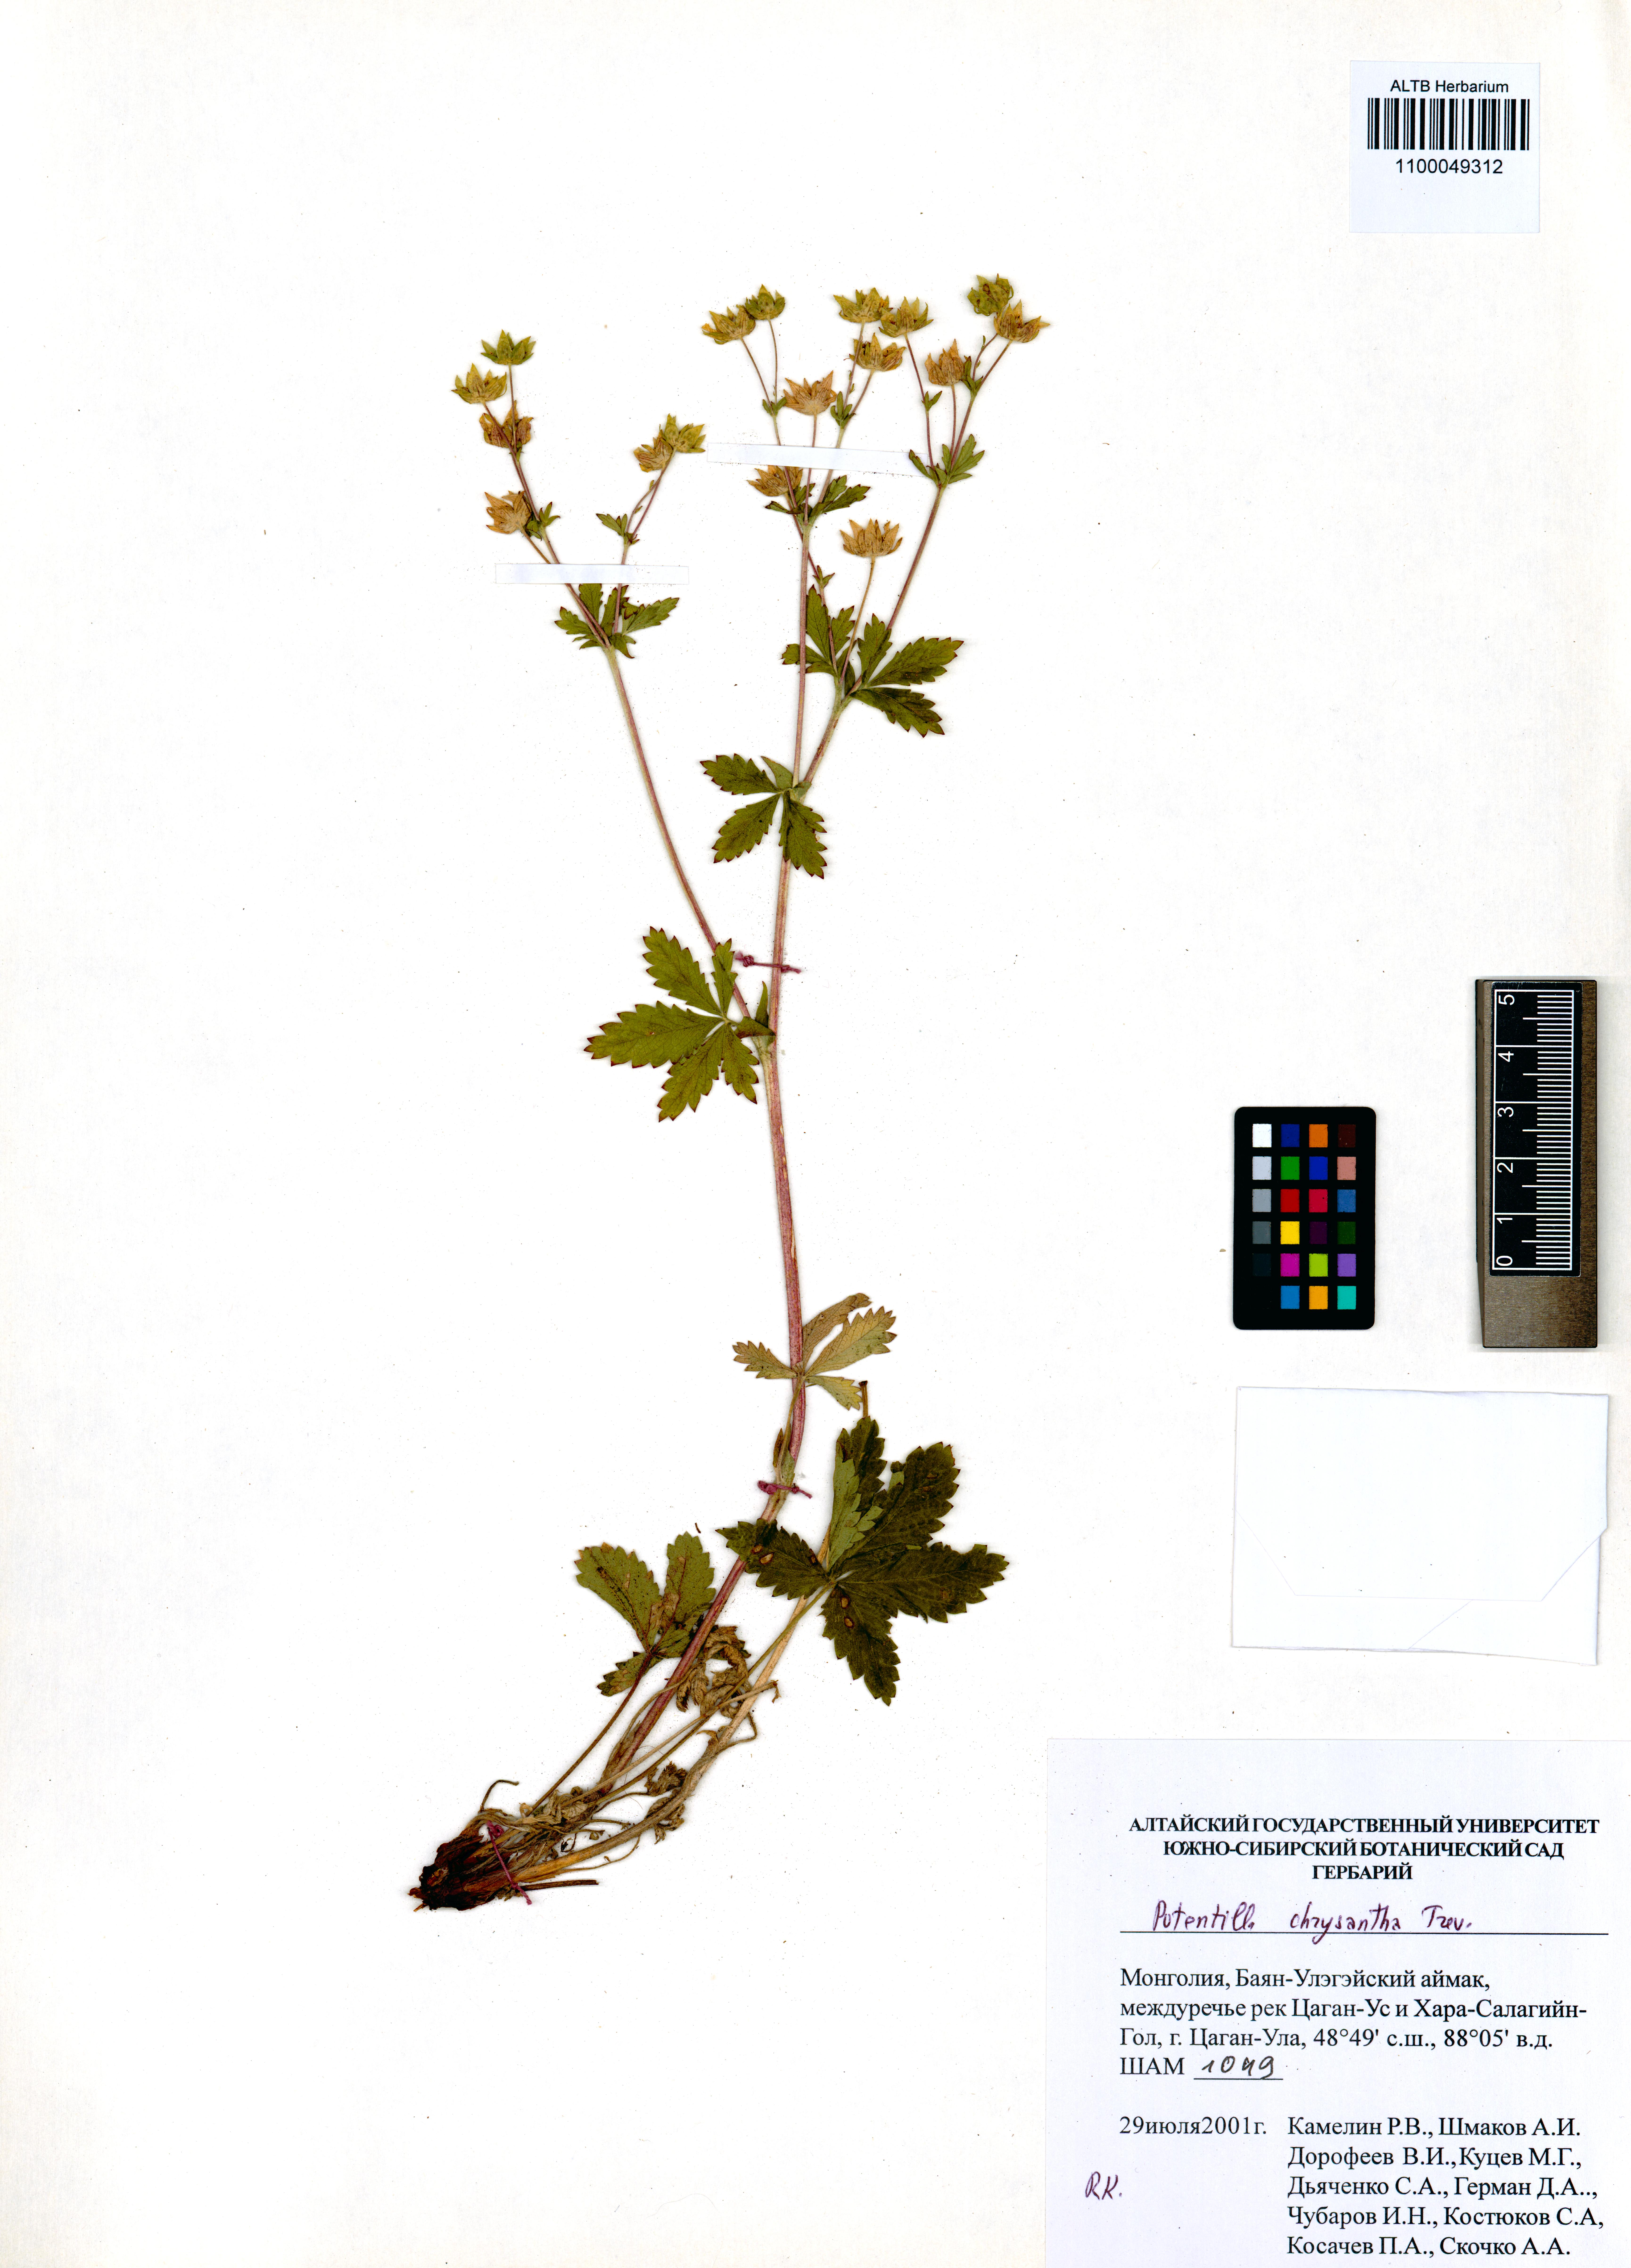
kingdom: Plantae
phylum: Tracheophyta
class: Magnoliopsida
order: Rosales
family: Rosaceae
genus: Potentilla
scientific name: Potentilla chrysantha
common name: Thuringian cinquefoil
